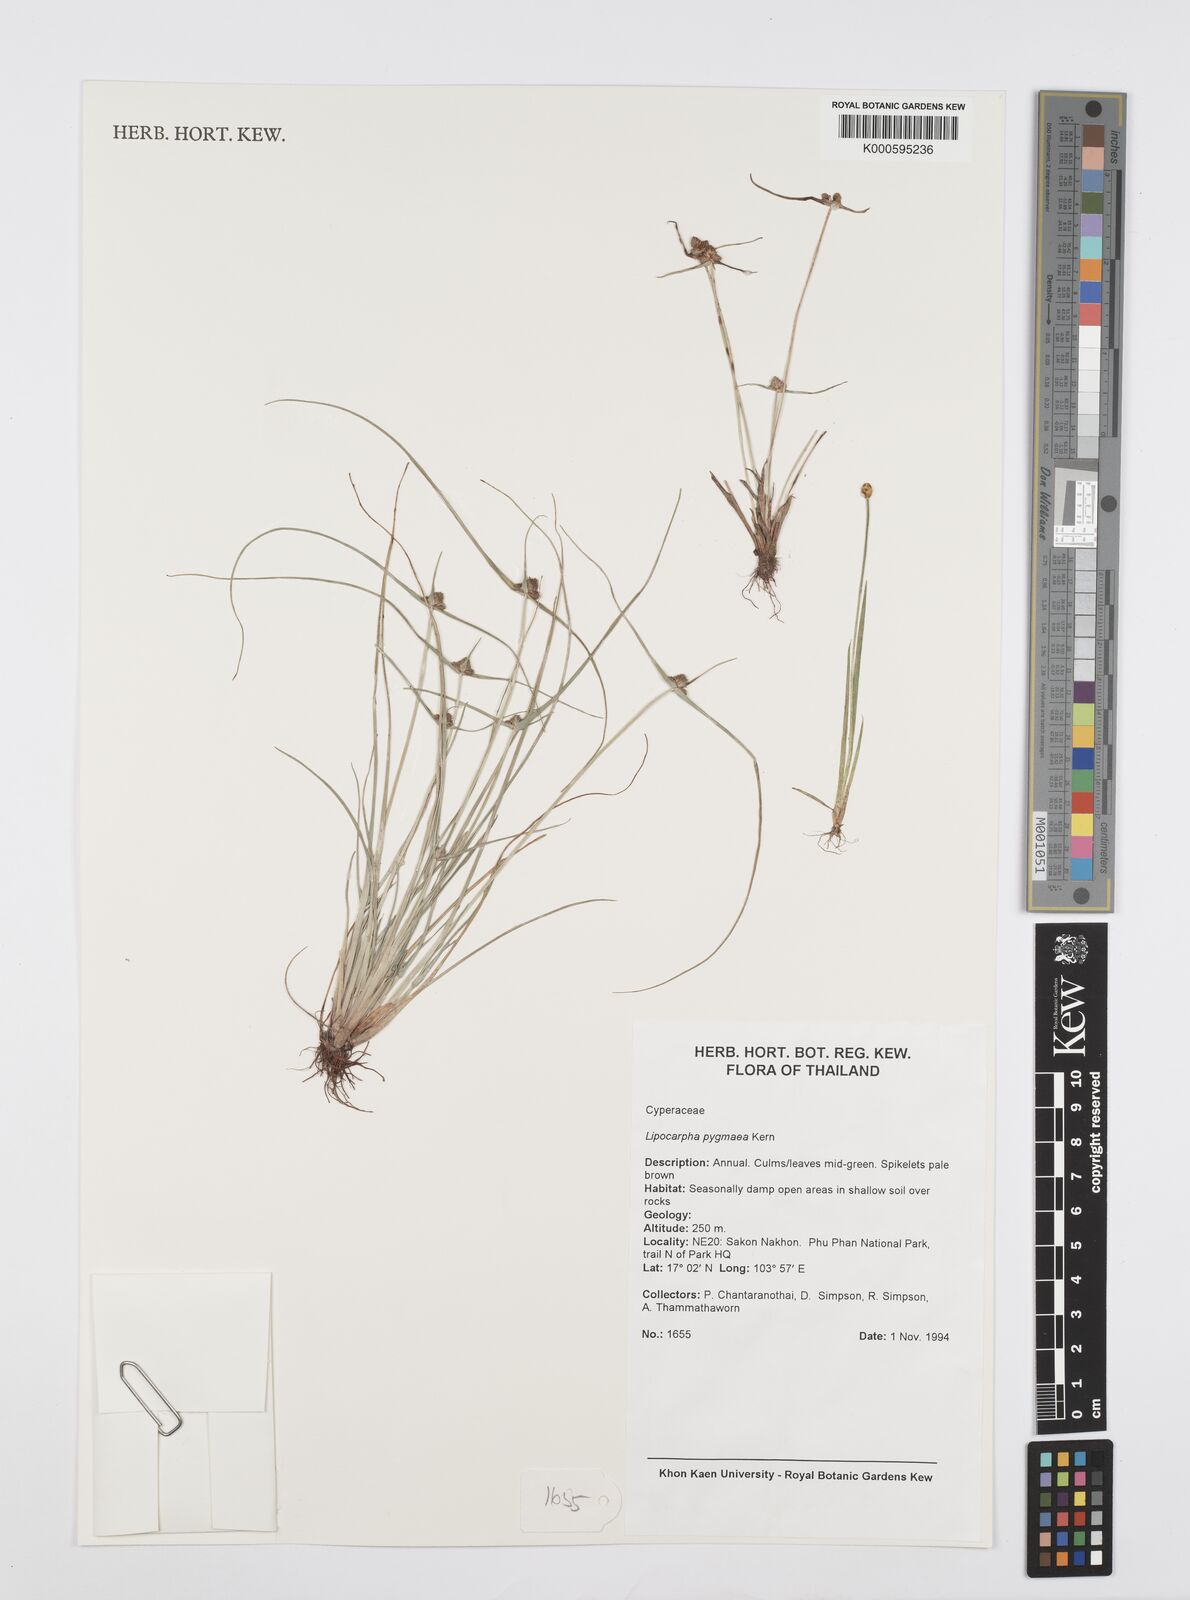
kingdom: Plantae
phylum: Tracheophyta
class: Liliopsida
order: Poales
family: Cyperaceae
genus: Cyperus
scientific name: Cyperus lipopygmaeus
